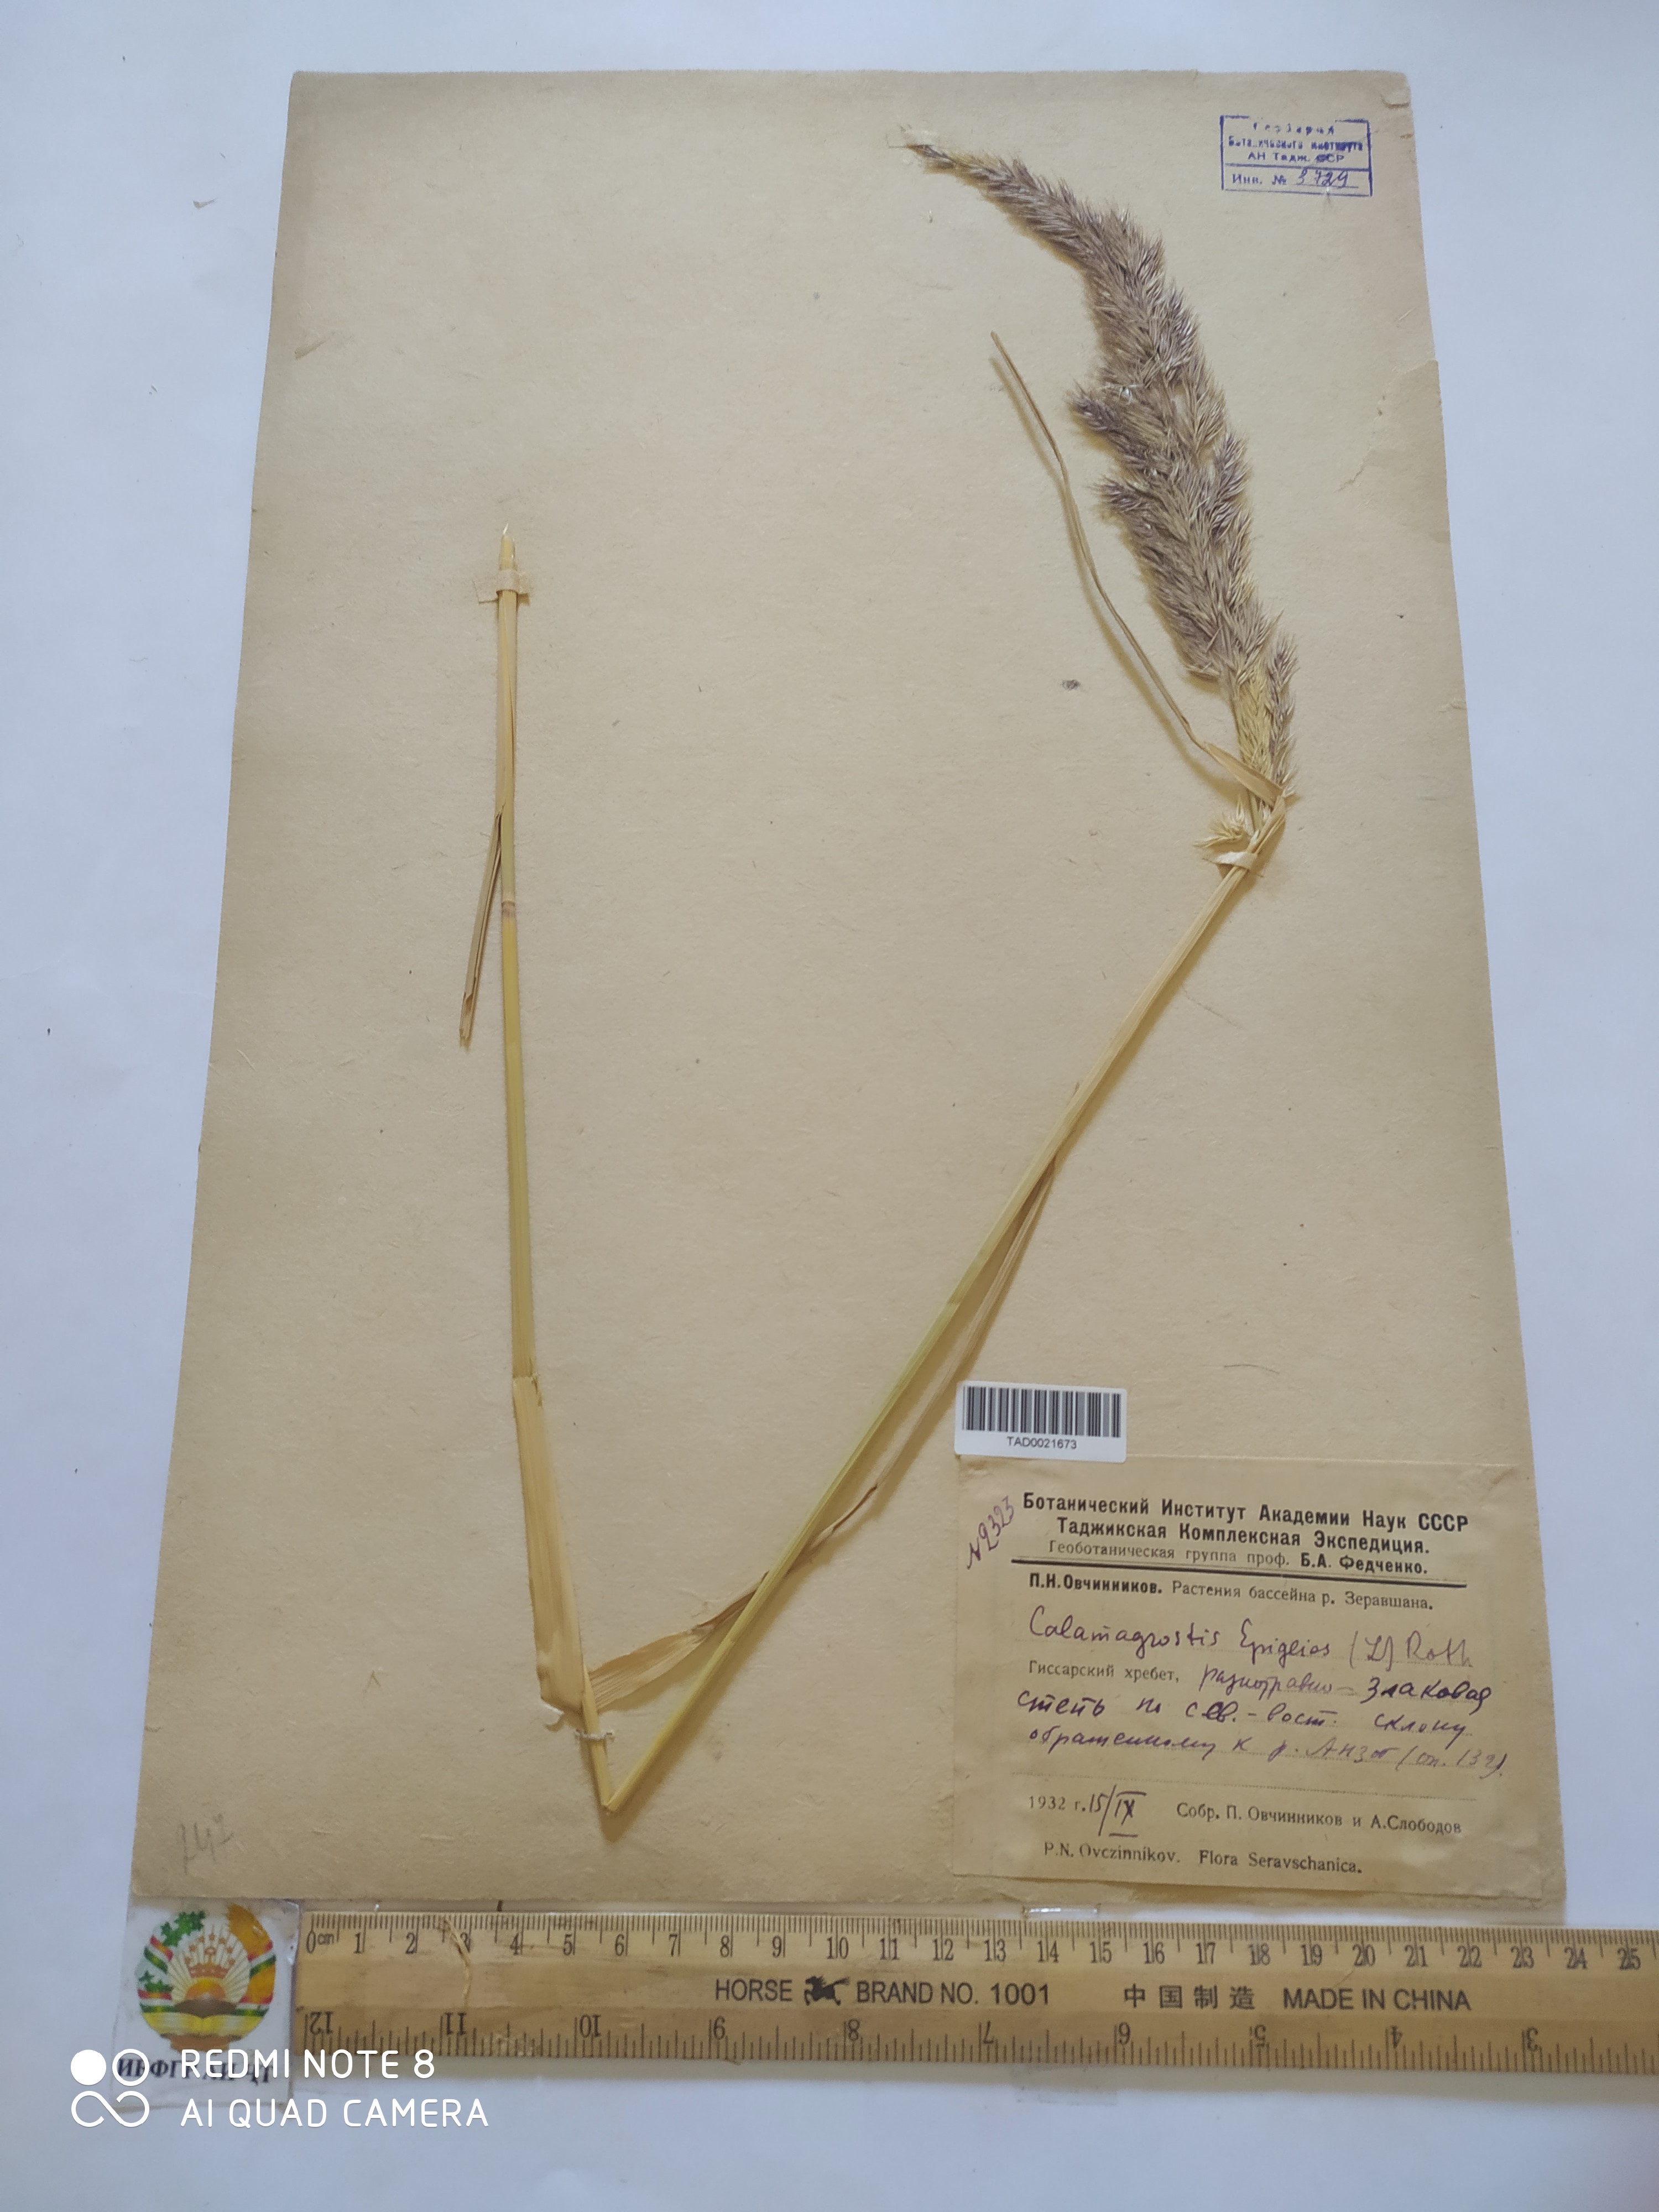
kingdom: Plantae
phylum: Tracheophyta
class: Liliopsida
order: Poales
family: Poaceae
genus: Calamagrostis
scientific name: Calamagrostis epigejos
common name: Wood small-reed
